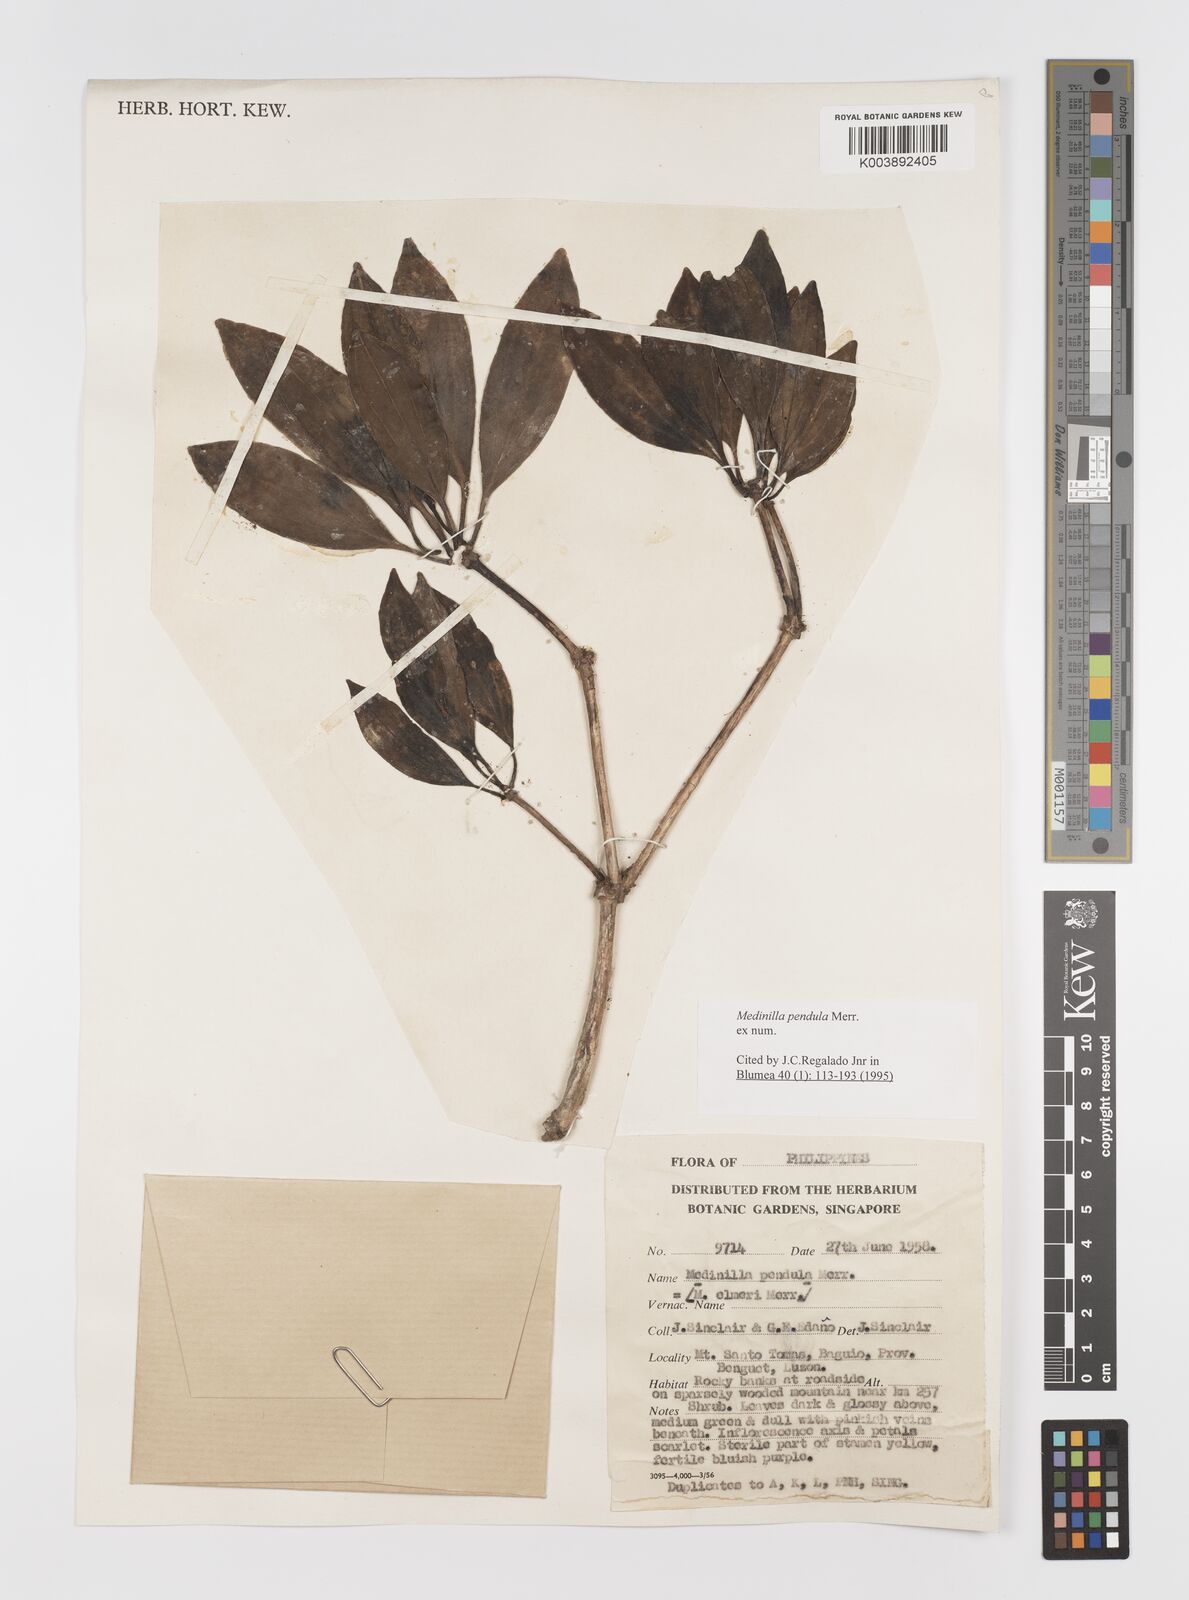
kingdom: Plantae
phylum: Tracheophyta
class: Magnoliopsida
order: Myrtales
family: Melastomataceae
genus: Medinilla
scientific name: Medinilla pendula
